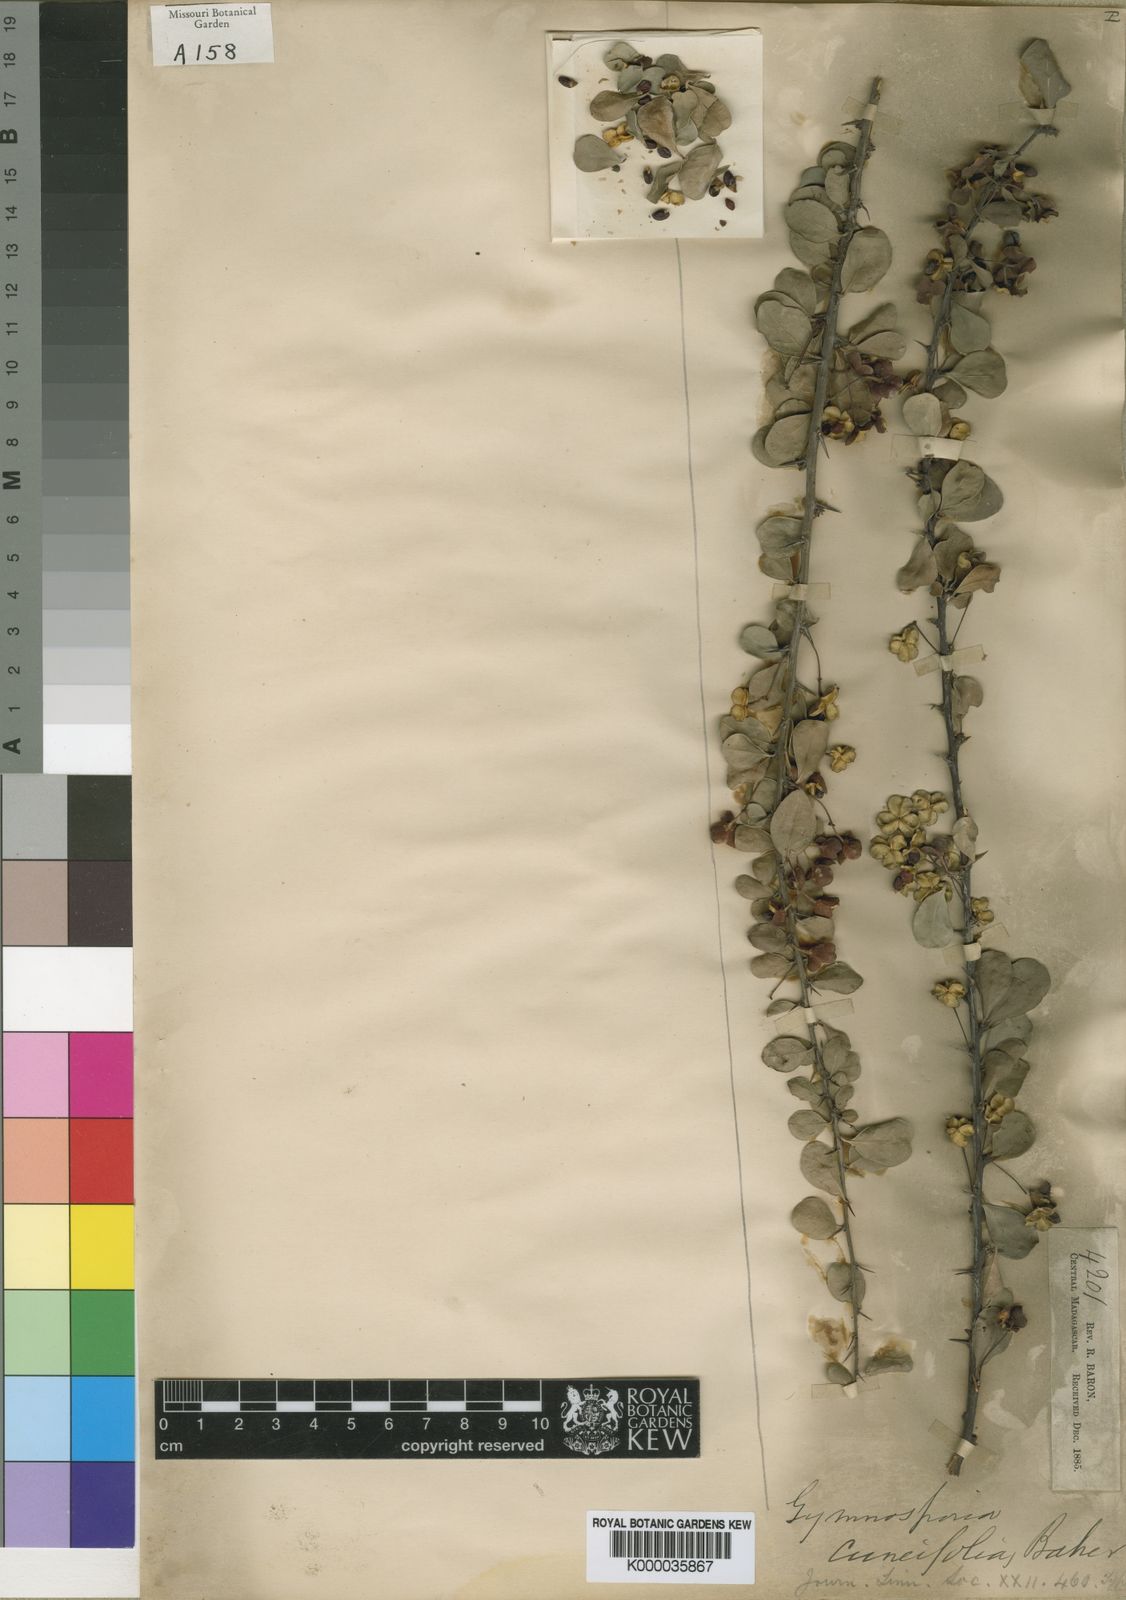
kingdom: Plantae
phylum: Tracheophyta
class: Magnoliopsida
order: Celastrales
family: Celastraceae
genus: Gymnosporia
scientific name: Gymnosporia leptopus
